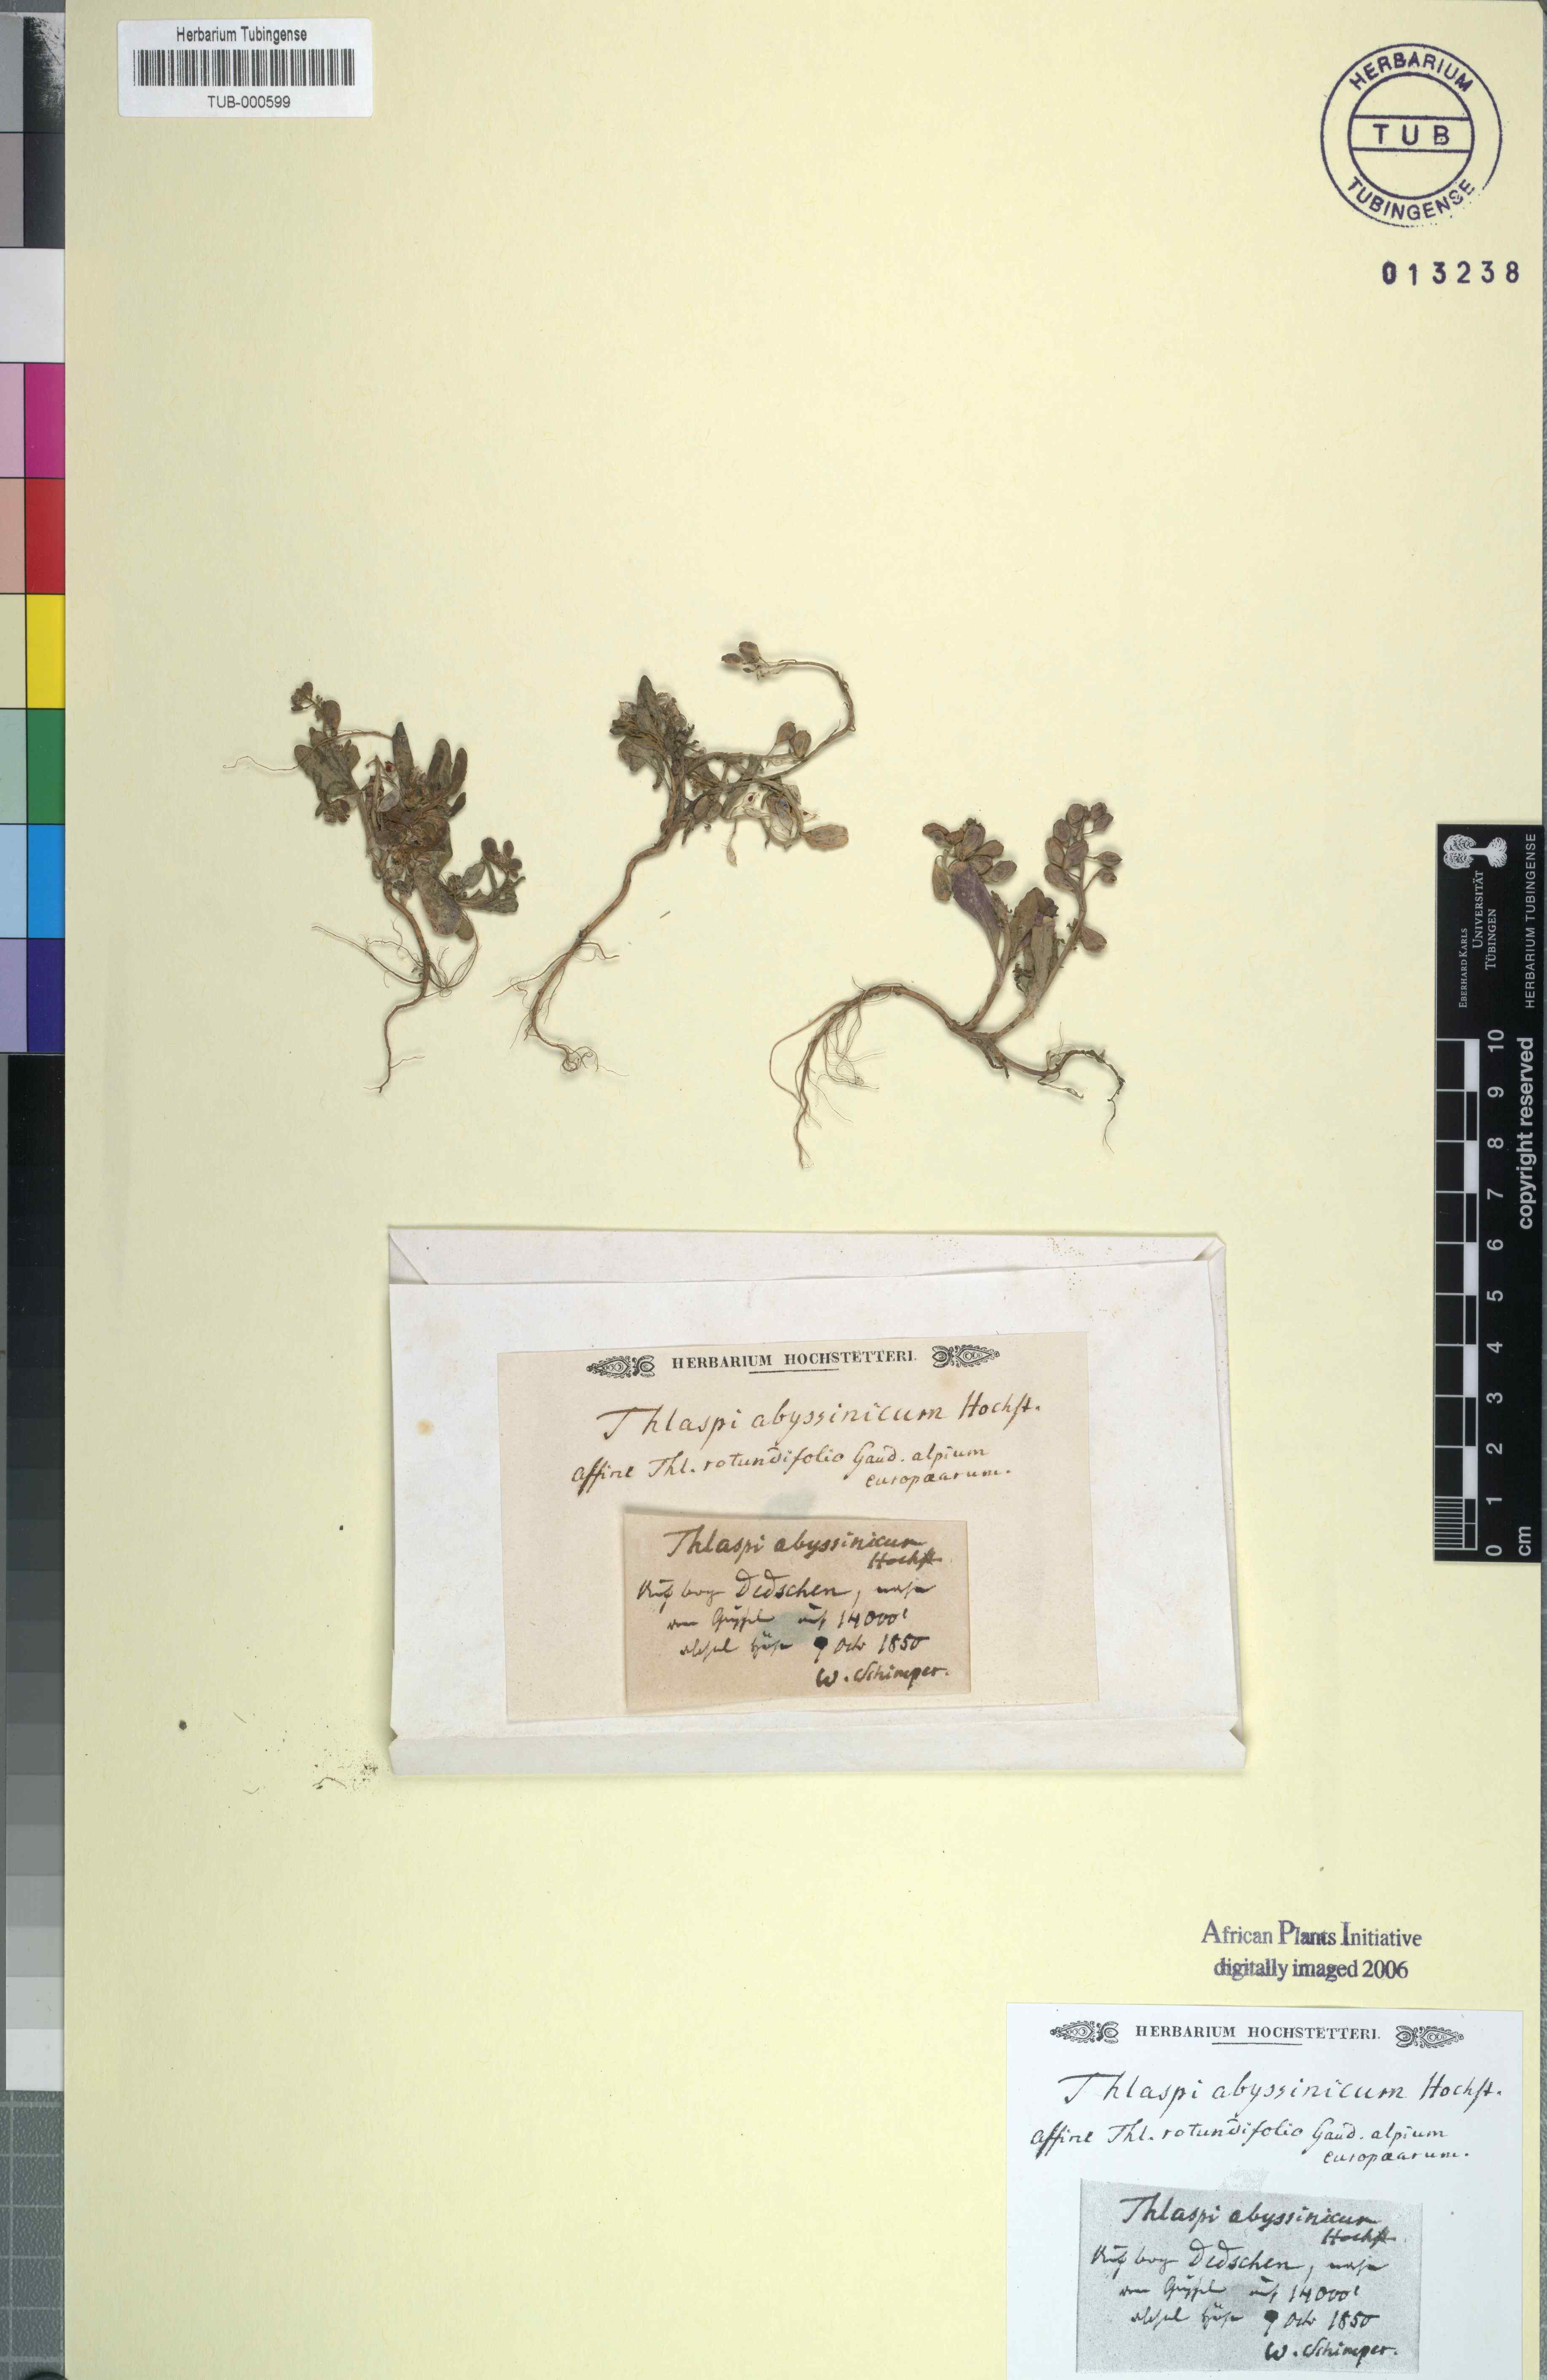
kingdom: Plantae
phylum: Tracheophyta
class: Magnoliopsida
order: Brassicales
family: Brassicaceae
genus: Thlaspi
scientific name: Thlaspi
